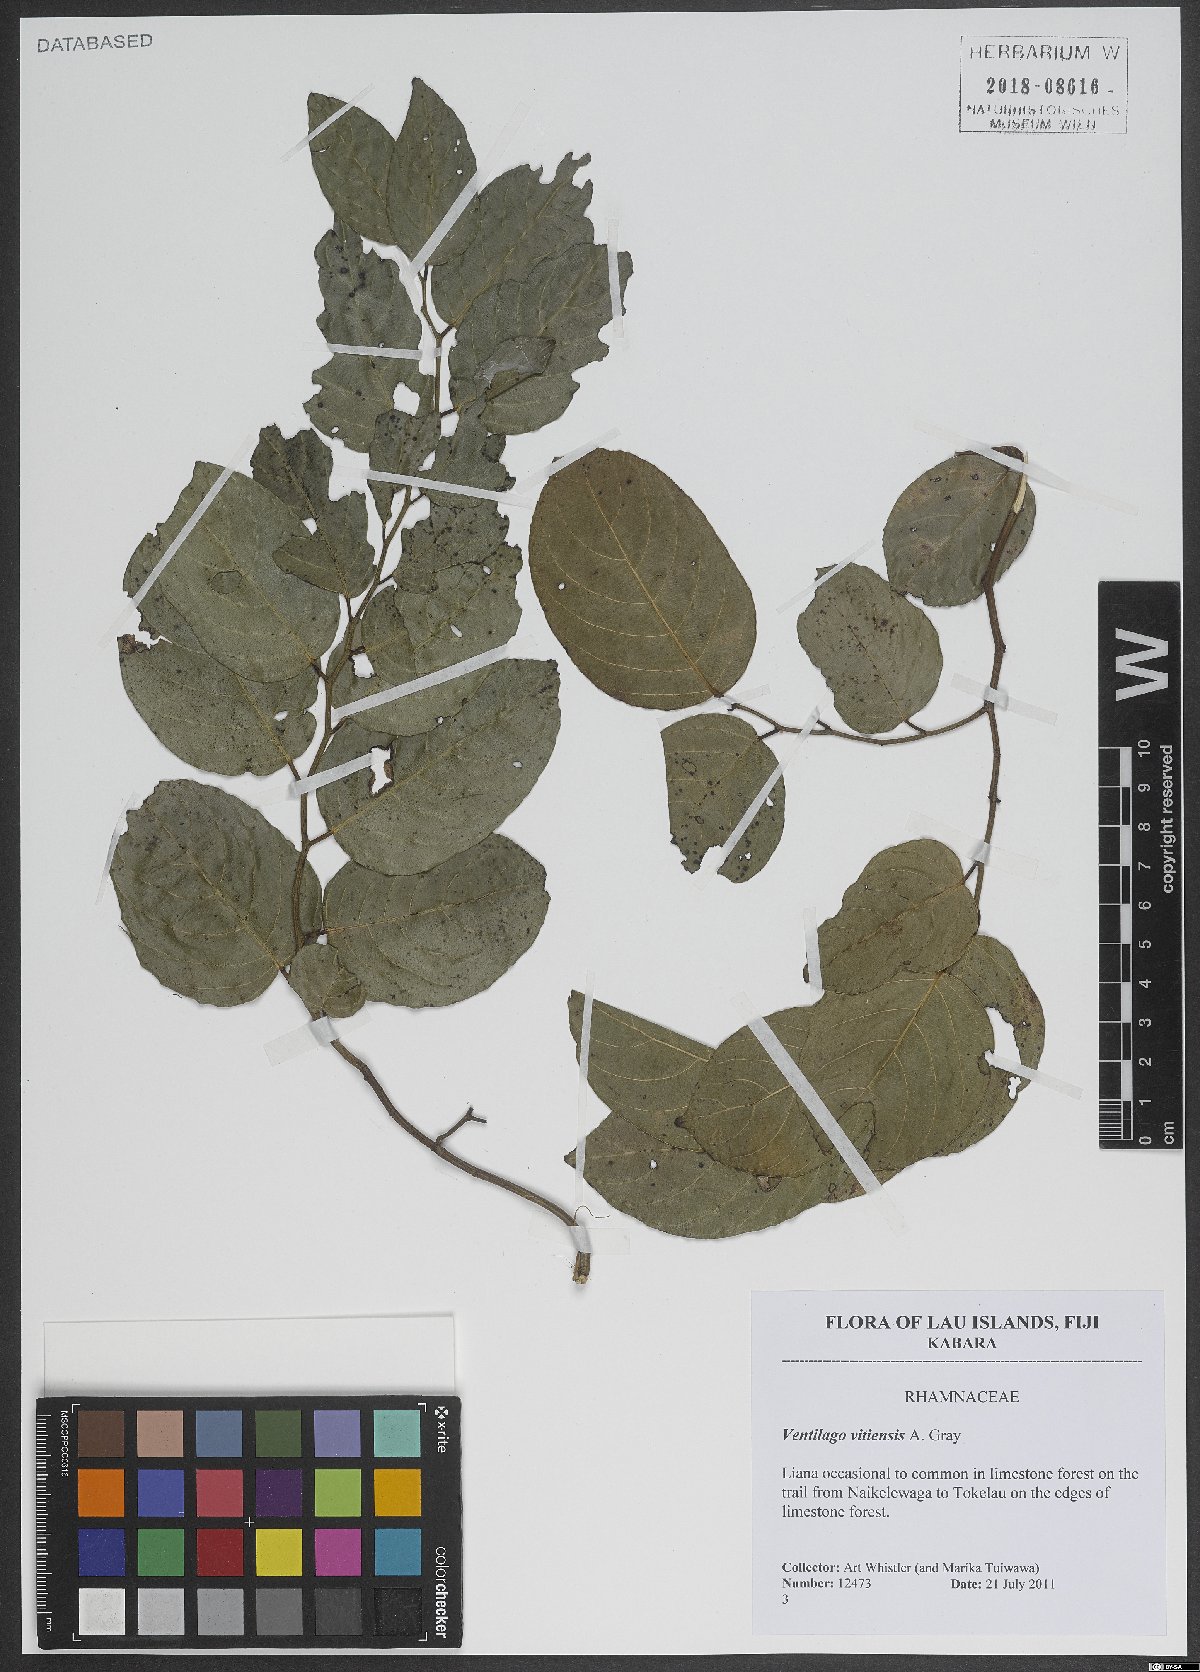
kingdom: Plantae
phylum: Tracheophyta
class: Magnoliopsida
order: Rosales
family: Rhamnaceae
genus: Ventilago
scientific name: Ventilago vitiensis
